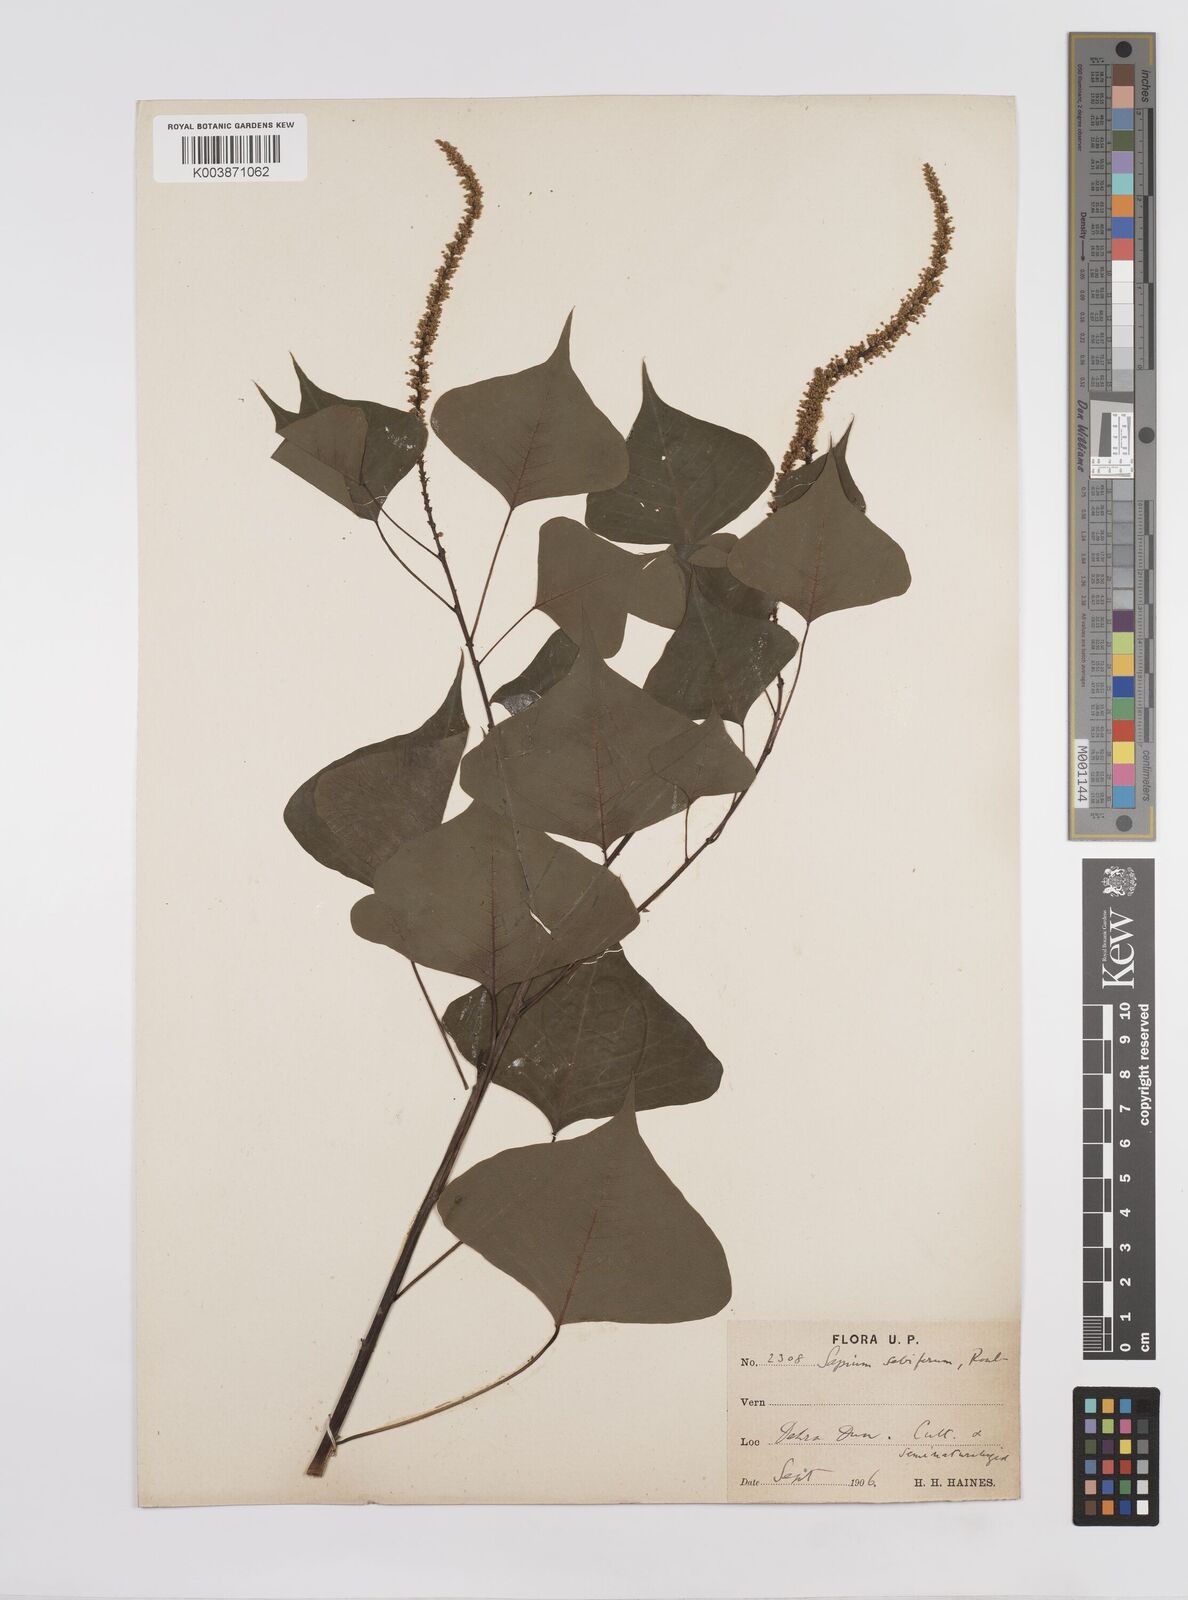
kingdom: Plantae
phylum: Tracheophyta
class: Magnoliopsida
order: Malpighiales
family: Euphorbiaceae
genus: Triadica
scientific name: Triadica sebifera
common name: Chinese tallow
